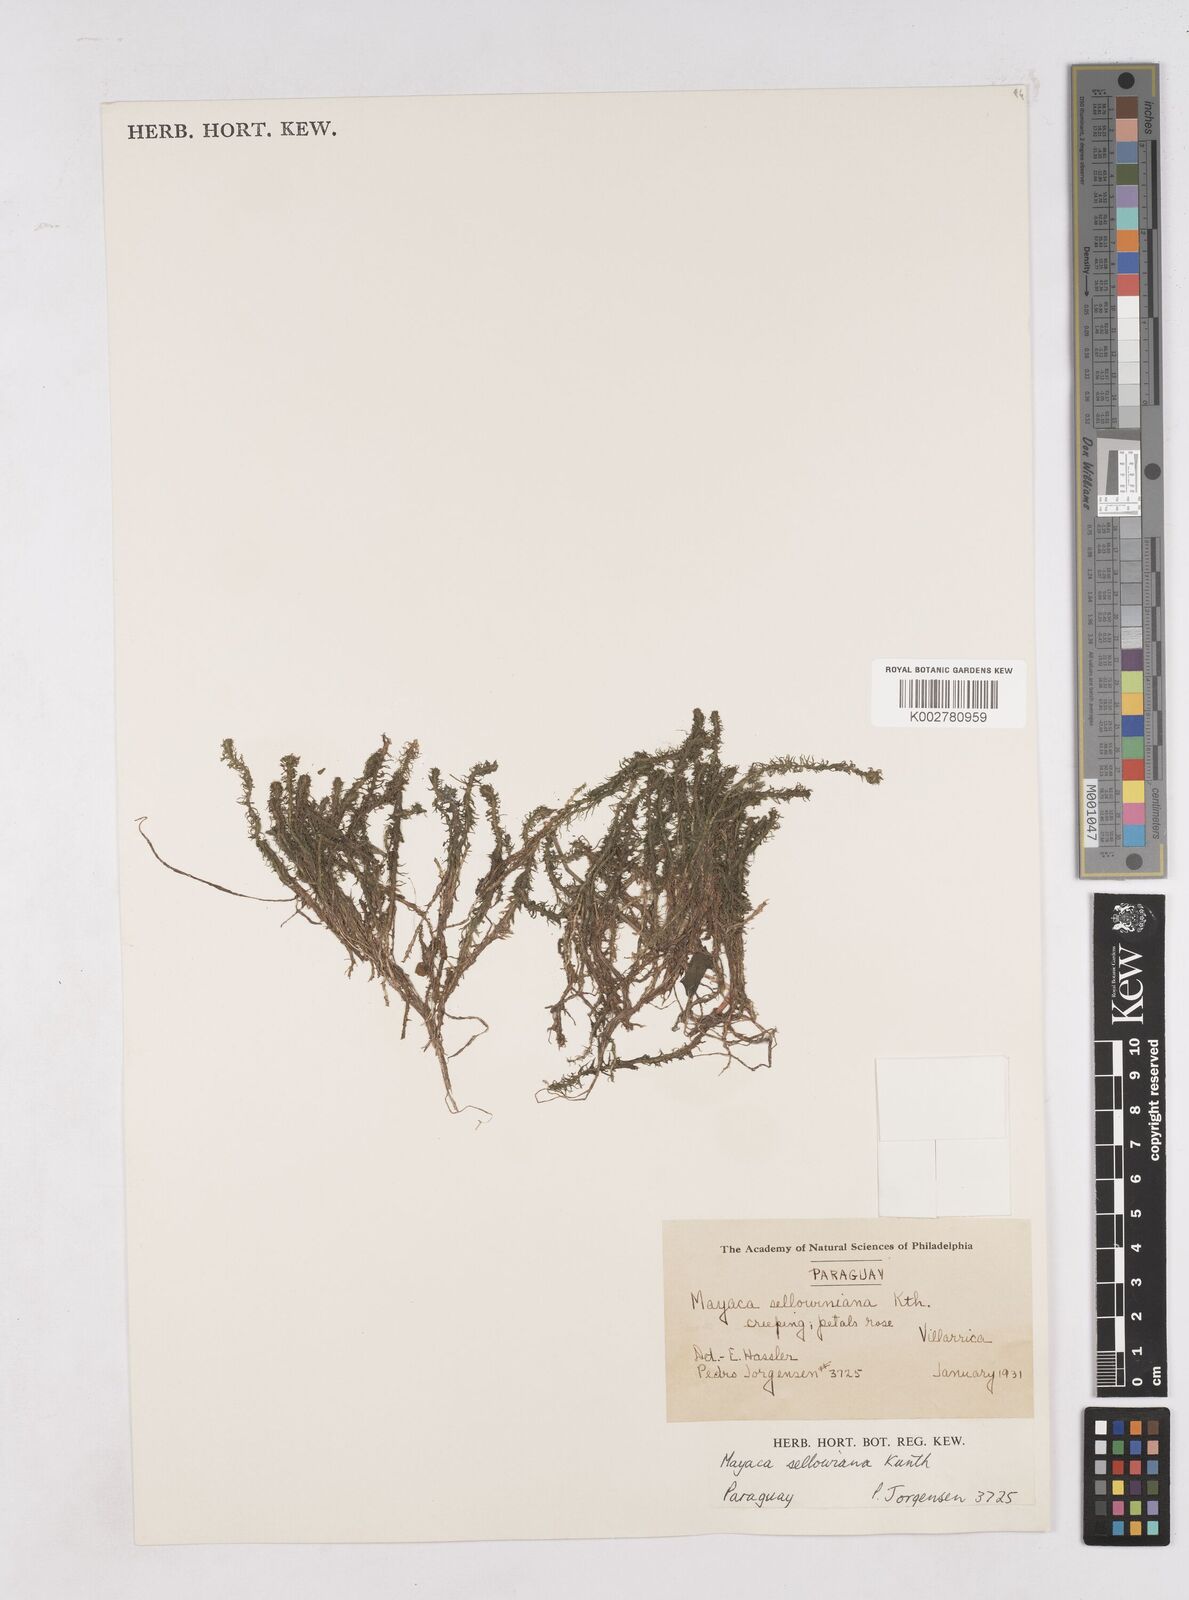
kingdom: Plantae
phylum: Tracheophyta
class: Liliopsida
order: Poales
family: Mayacaceae
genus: Mayaca
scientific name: Mayaca sellowiana
